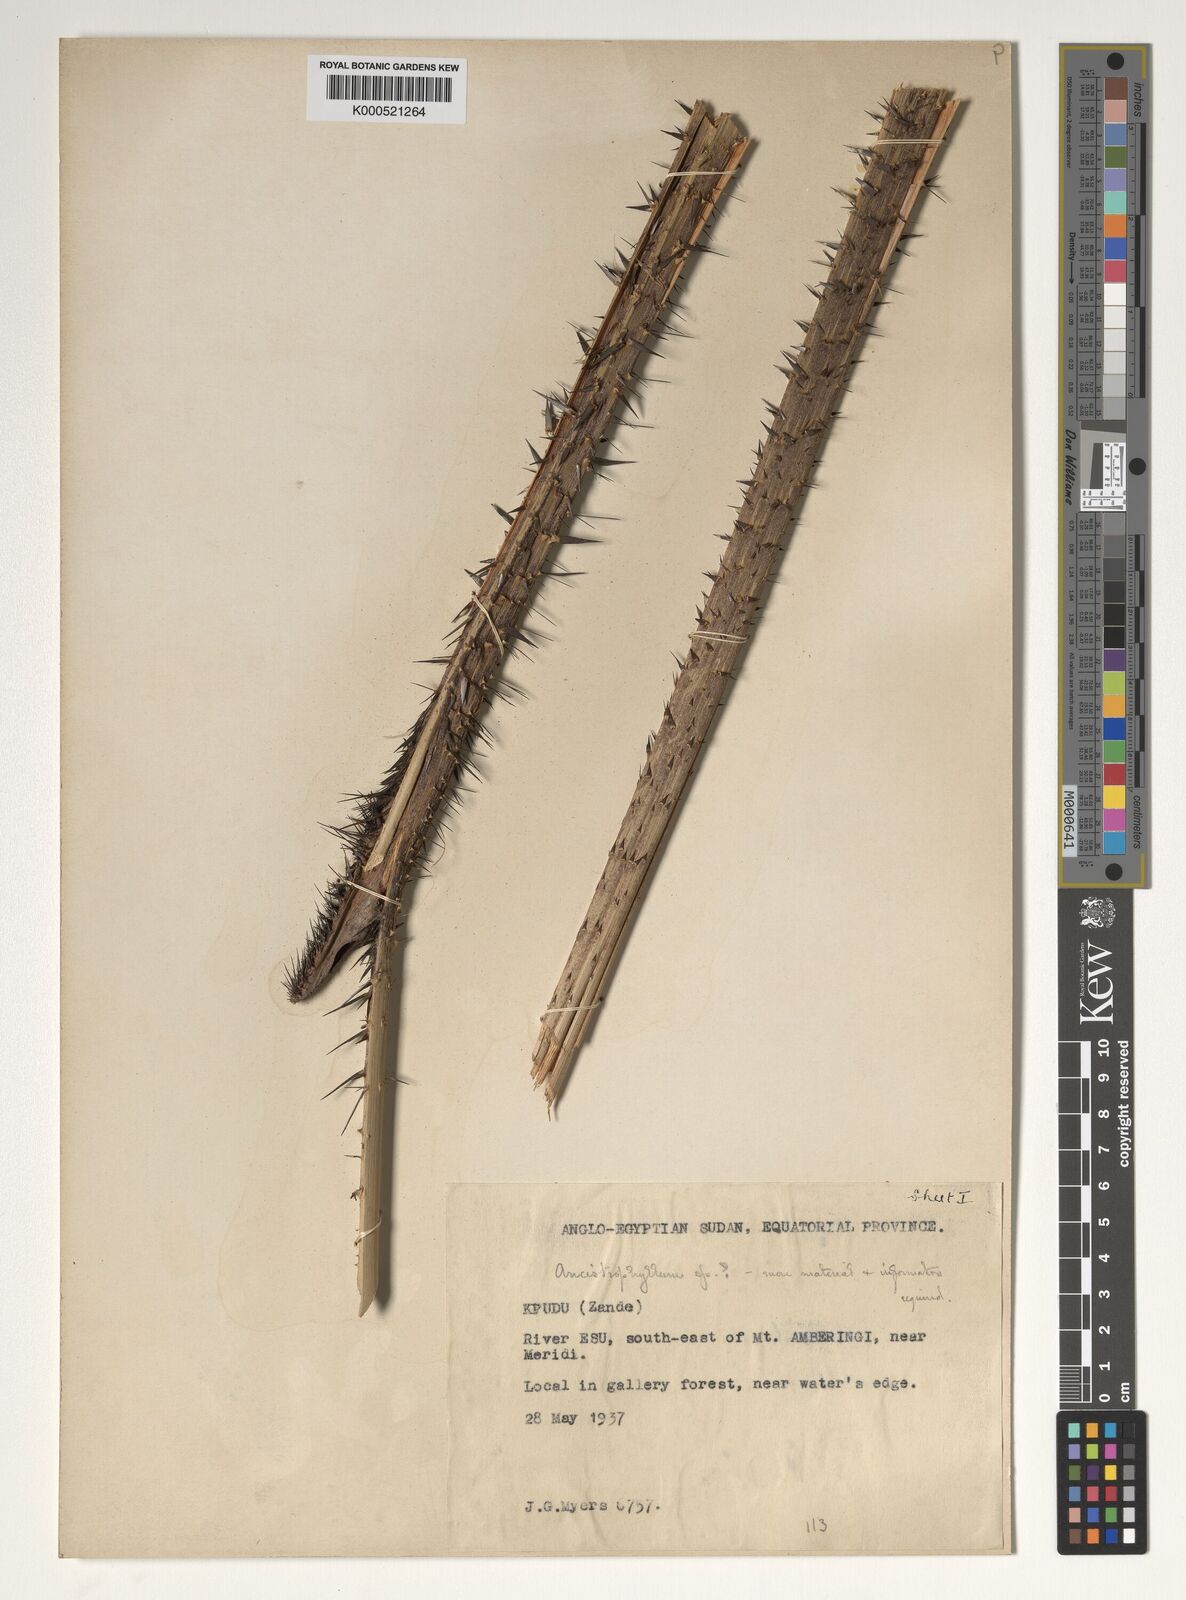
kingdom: Plantae
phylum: Tracheophyta
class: Liliopsida
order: Arecales
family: Arecaceae
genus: Calamus
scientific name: Calamus deerratus
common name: Rattan
